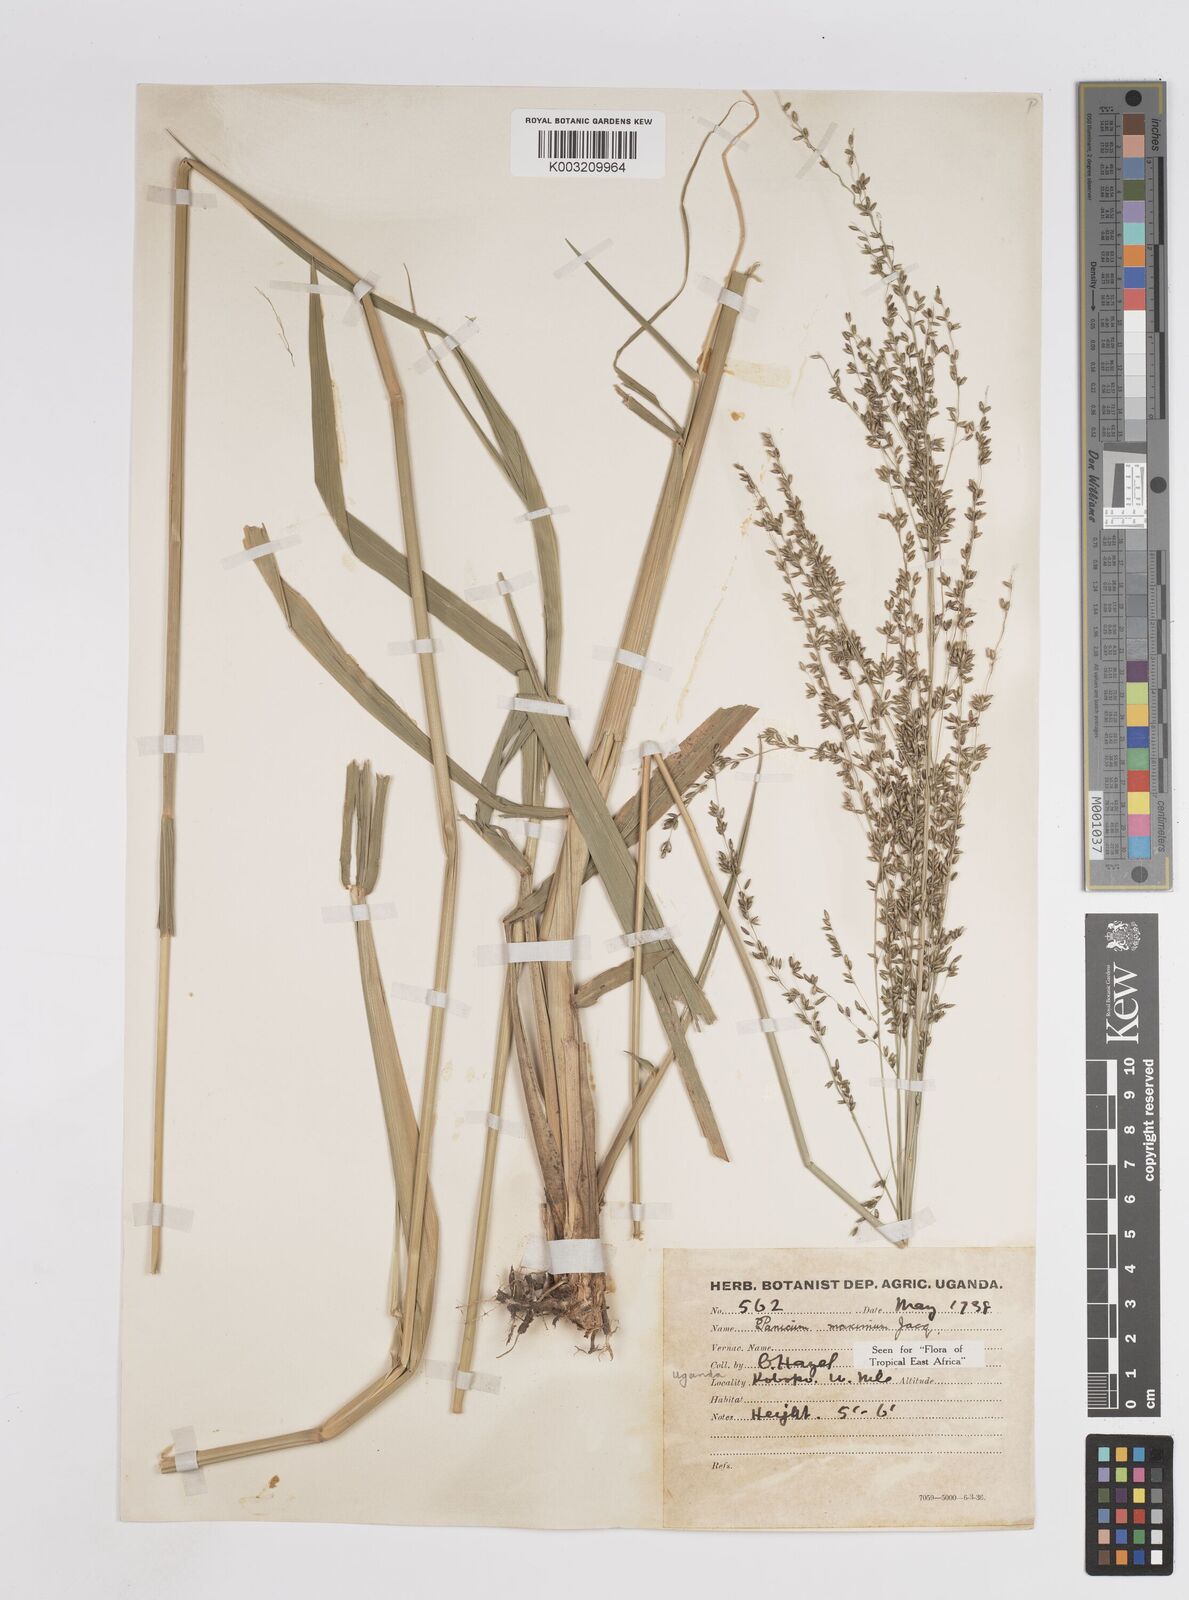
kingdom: Plantae
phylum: Tracheophyta
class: Liliopsida
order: Poales
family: Poaceae
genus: Megathyrsus
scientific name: Megathyrsus maximus
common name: Guineagrass
